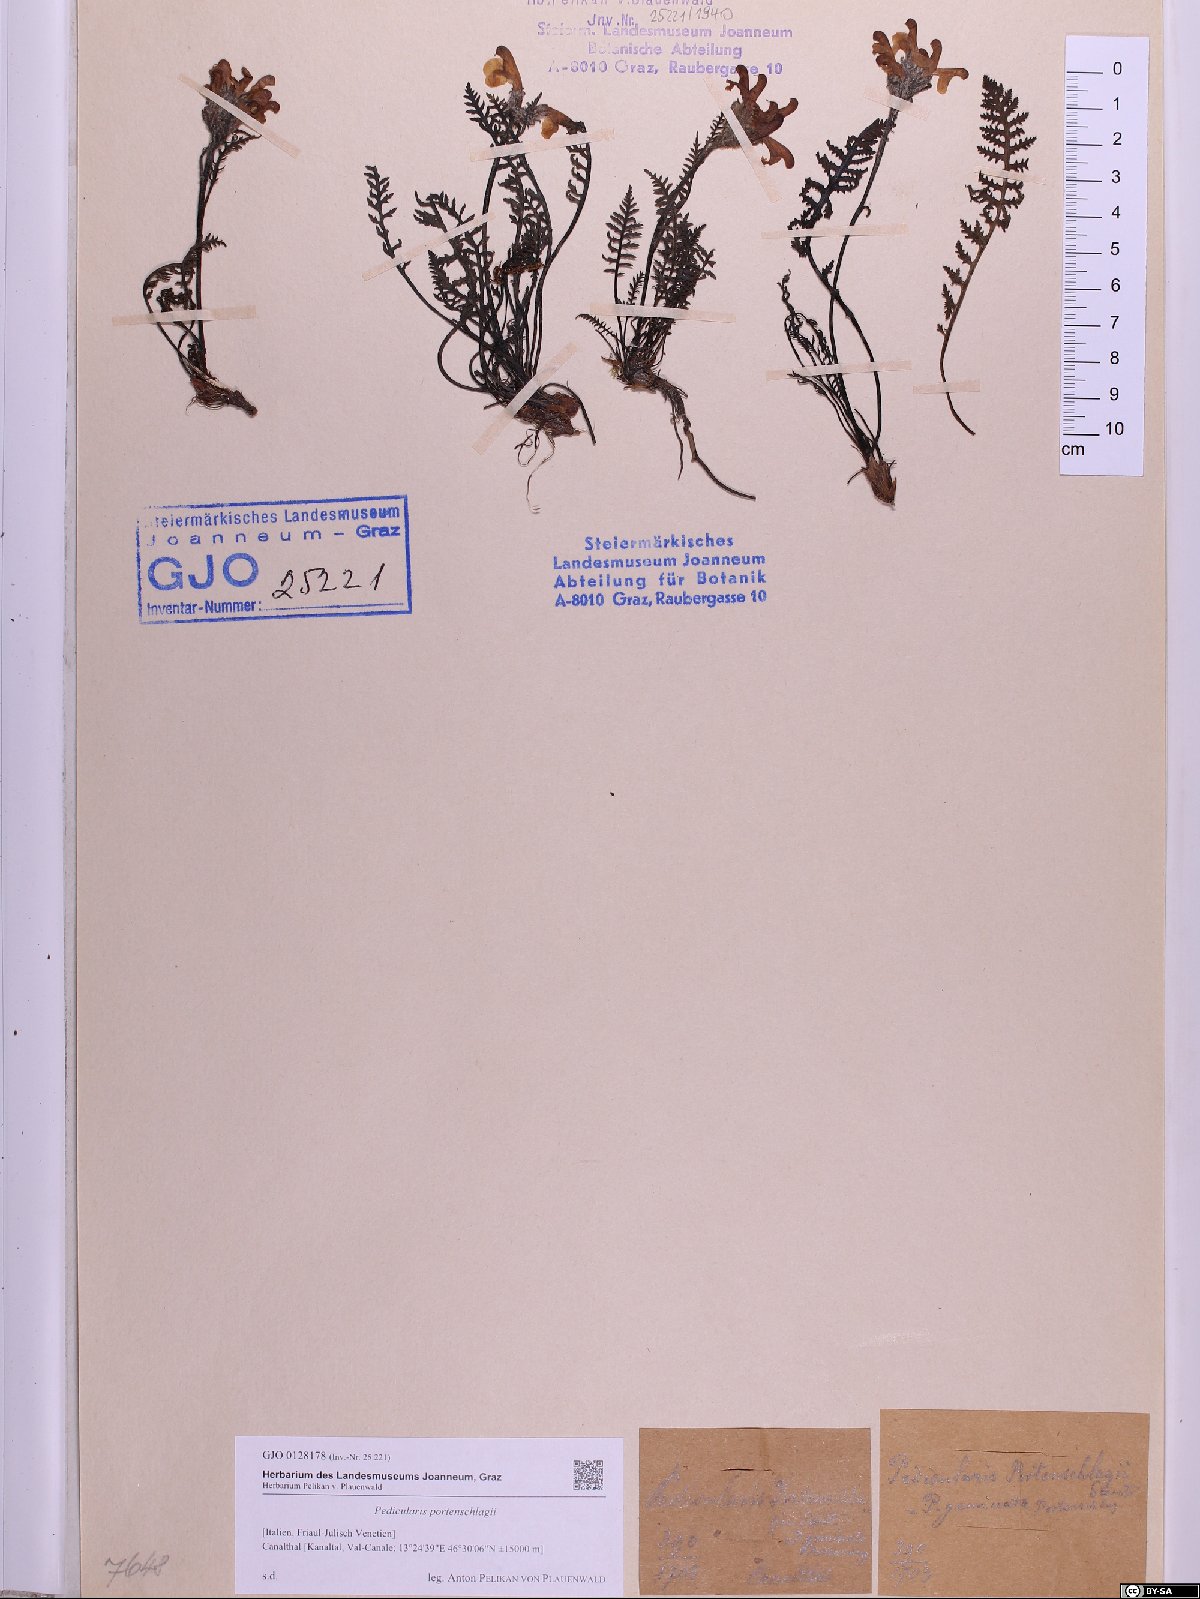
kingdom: Plantae
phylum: Tracheophyta
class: Magnoliopsida
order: Lamiales
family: Orobanchaceae
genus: Pedicularis
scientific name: Pedicularis portenschlagii
